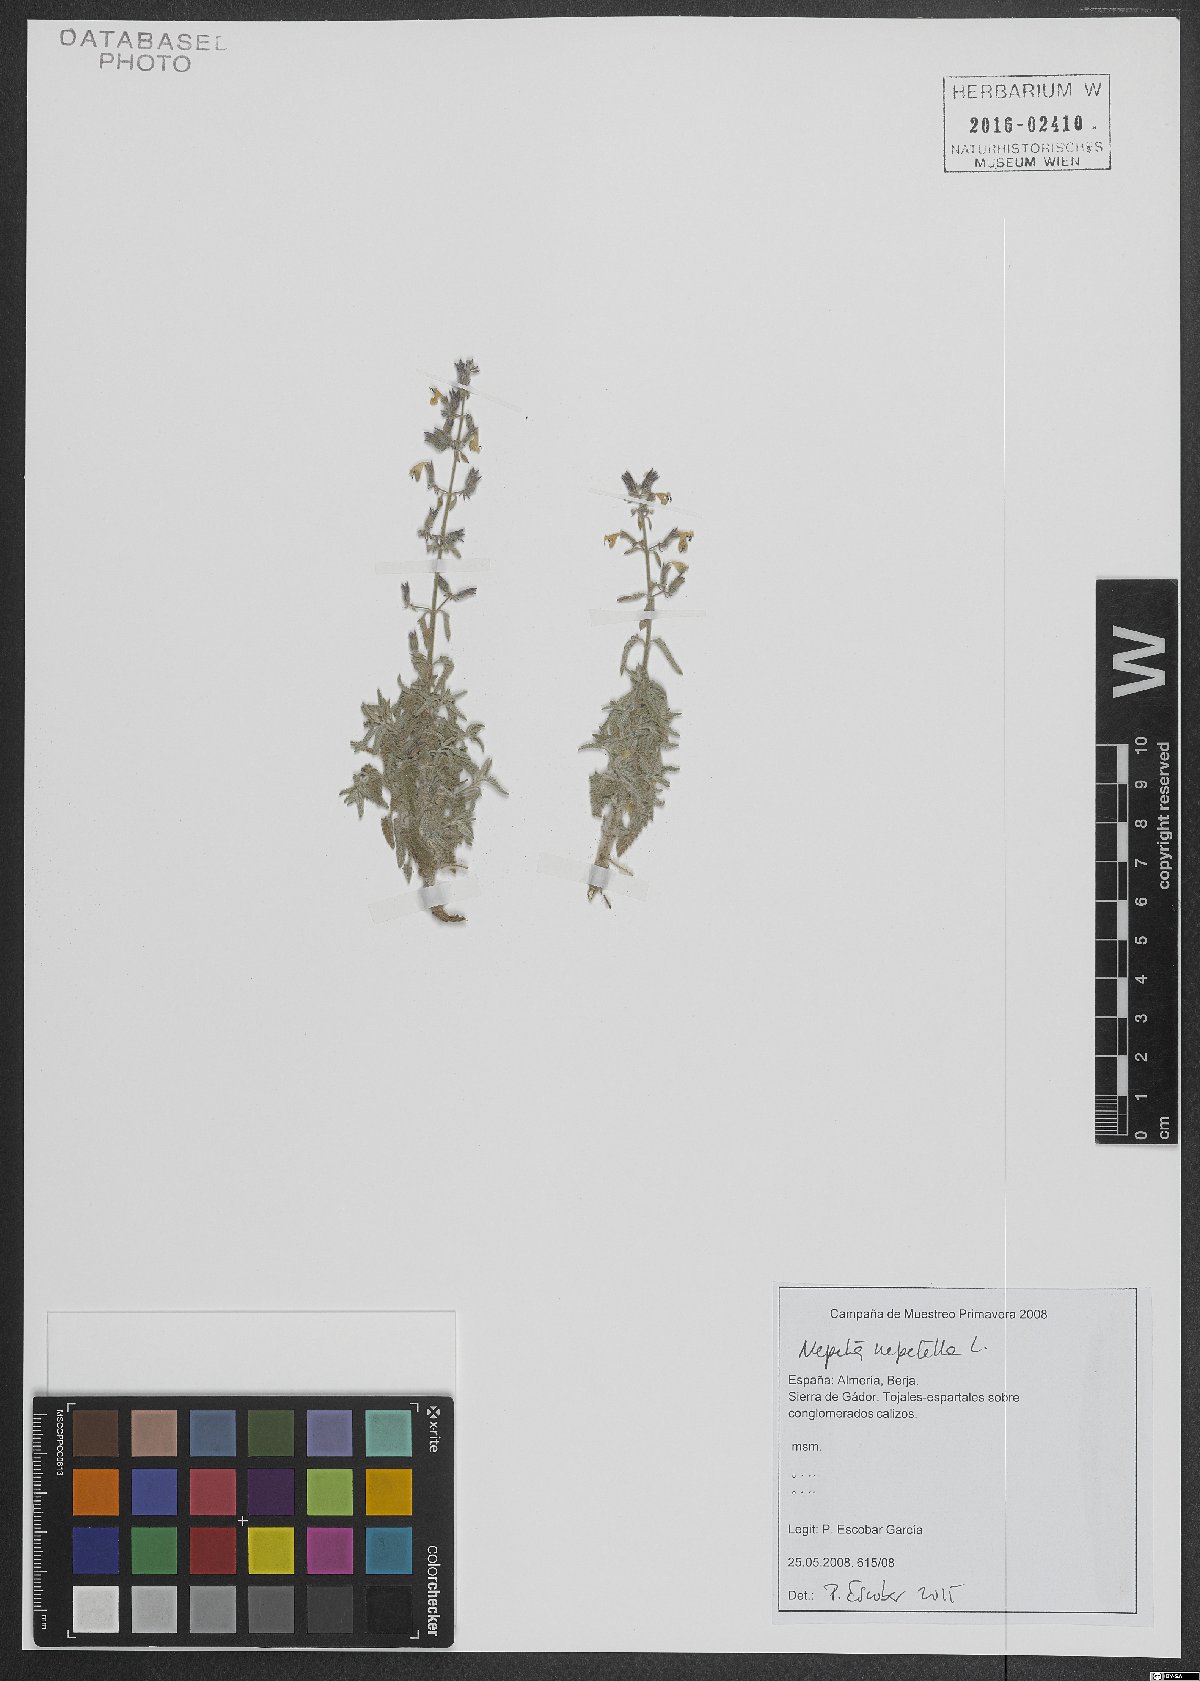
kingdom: Plantae
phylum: Tracheophyta
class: Magnoliopsida
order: Lamiales
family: Lamiaceae
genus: Nepeta
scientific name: Nepeta nepetella
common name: Lesser catmint
